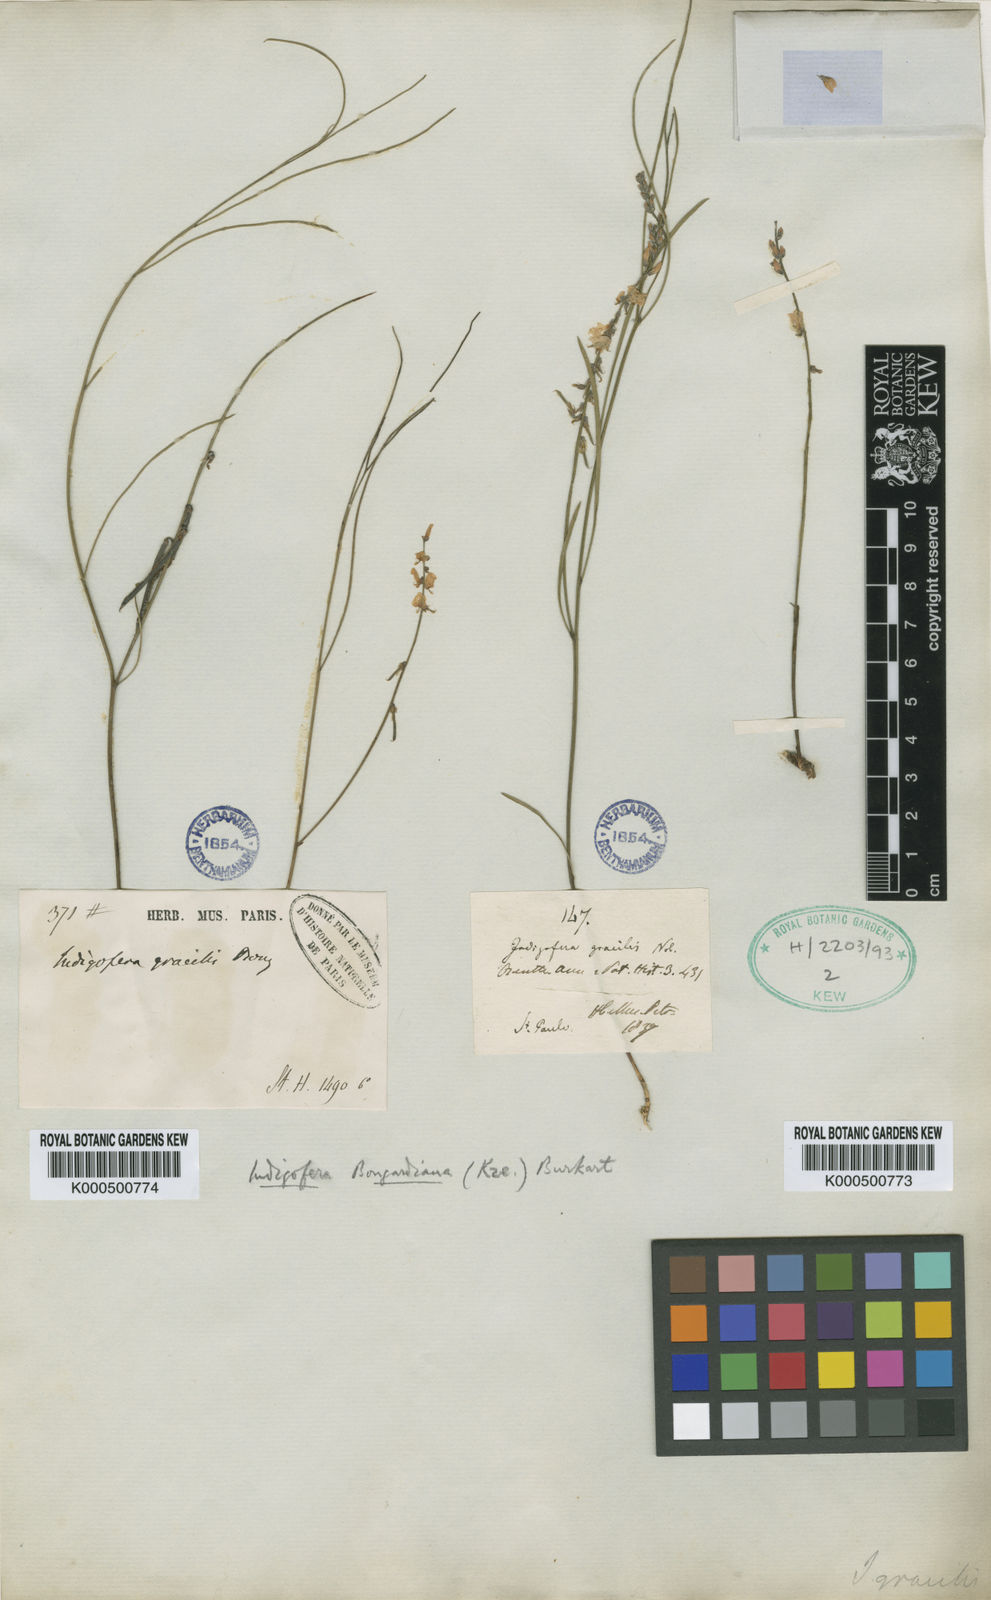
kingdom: Plantae
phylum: Tracheophyta
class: Magnoliopsida
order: Fabales
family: Fabaceae
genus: Indigofera
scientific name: Indigofera bongardiana
